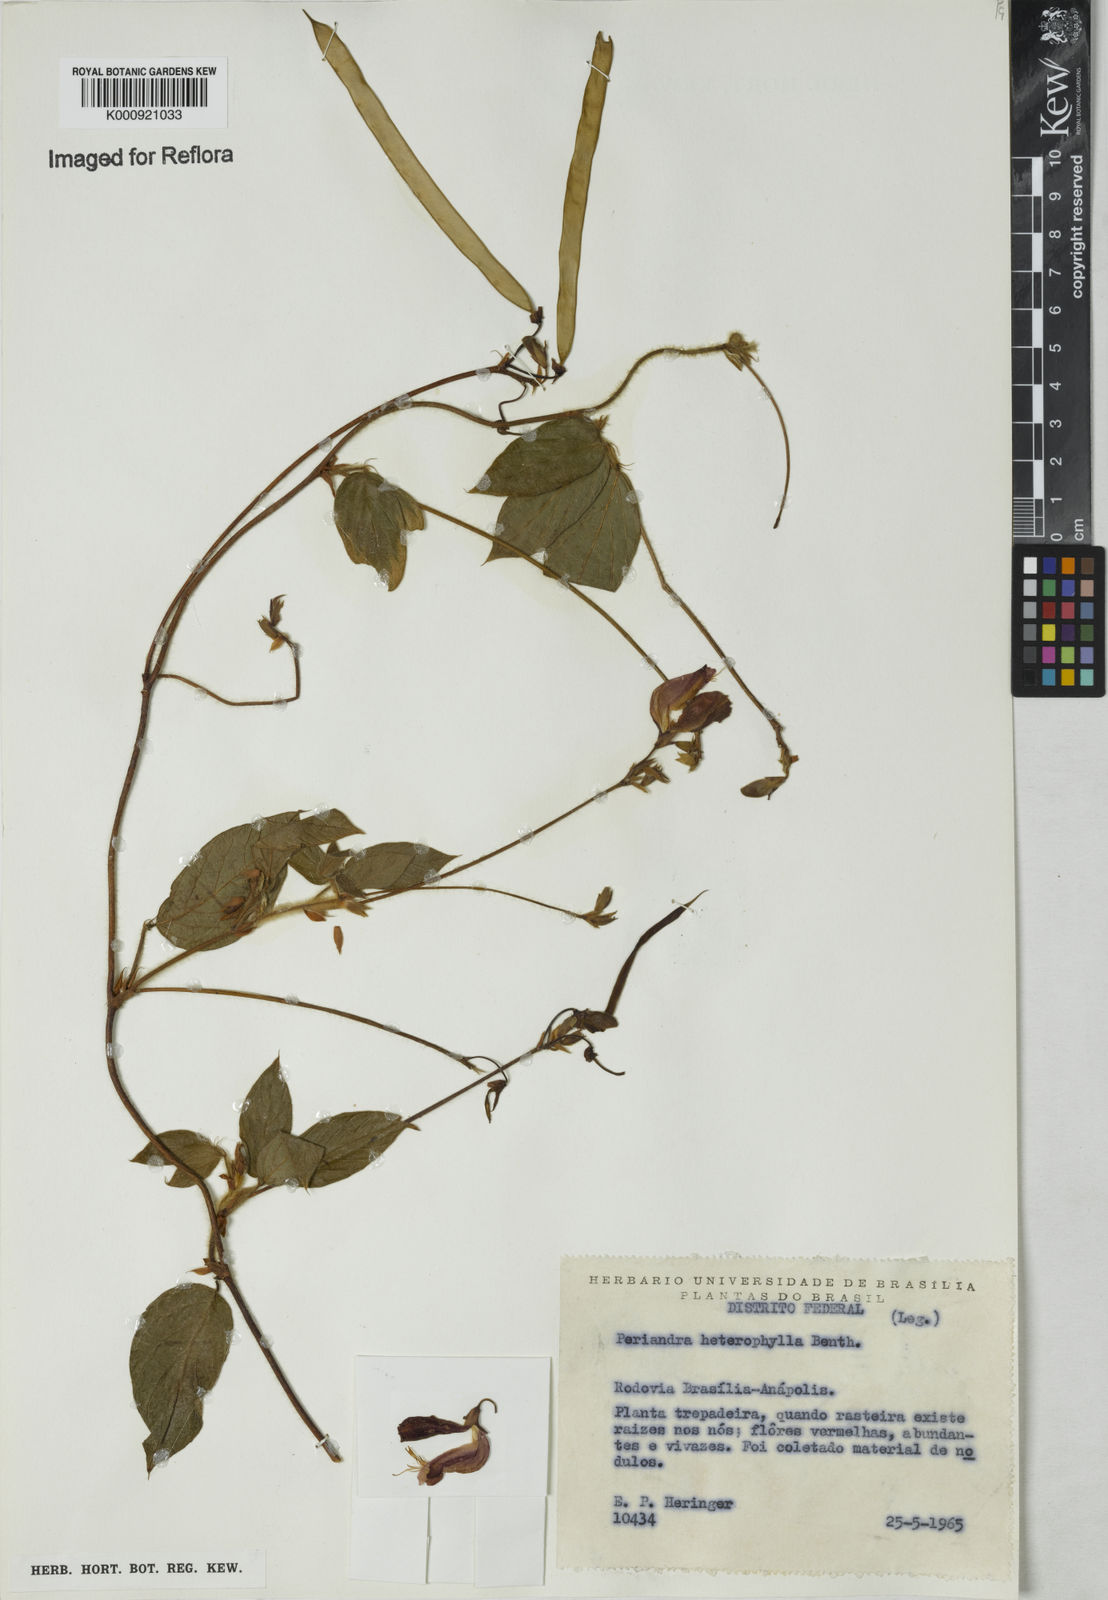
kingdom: Plantae
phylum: Tracheophyta
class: Magnoliopsida
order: Fabales
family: Fabaceae
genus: Periandra
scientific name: Periandra heterophylla
